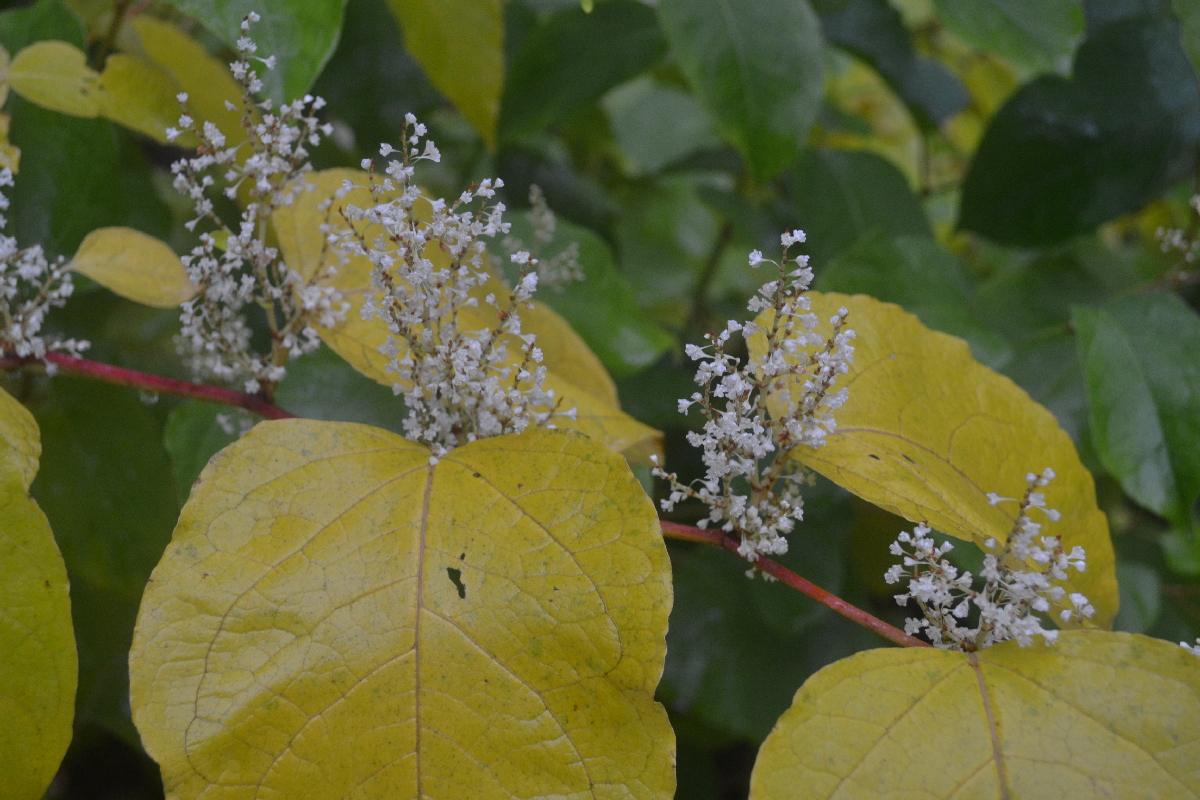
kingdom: Plantae
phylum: Tracheophyta
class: Magnoliopsida
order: Caryophyllales
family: Polygonaceae
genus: Reynoutria
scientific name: Reynoutria sachalinensis
